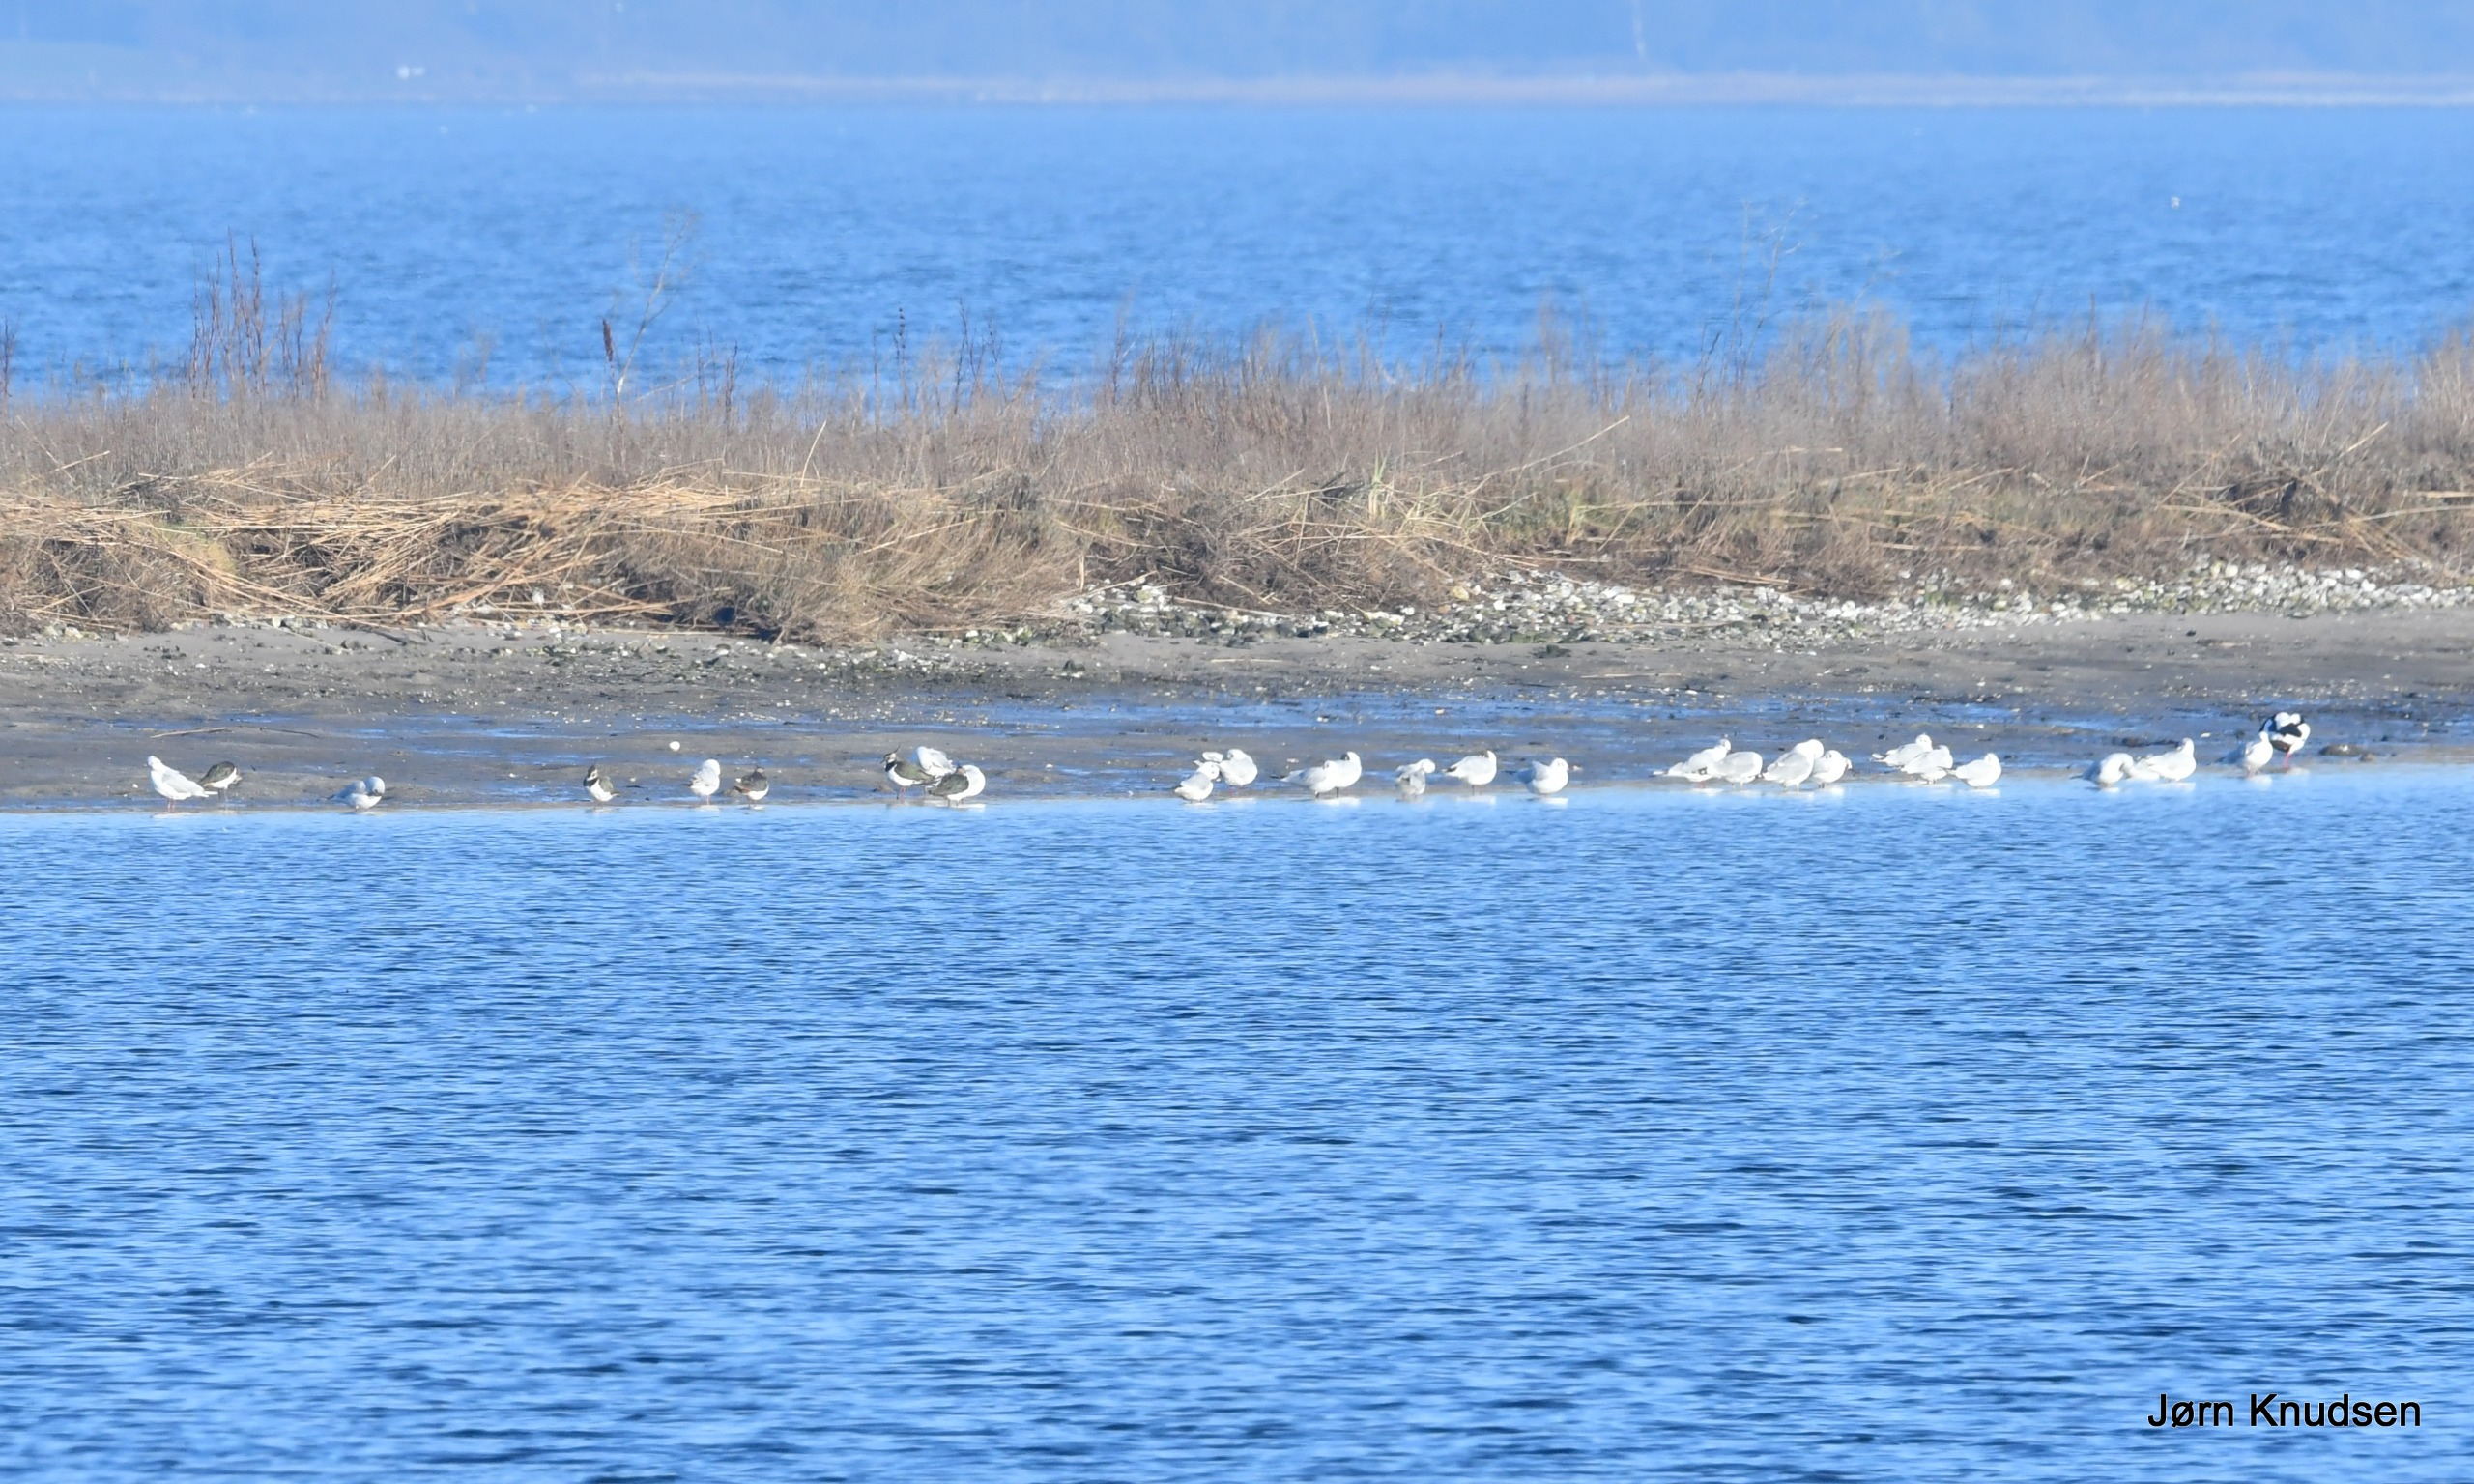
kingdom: Animalia
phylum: Chordata
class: Aves
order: Charadriiformes
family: Laridae
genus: Larus
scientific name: Larus argentatus
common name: Sølvmåge
